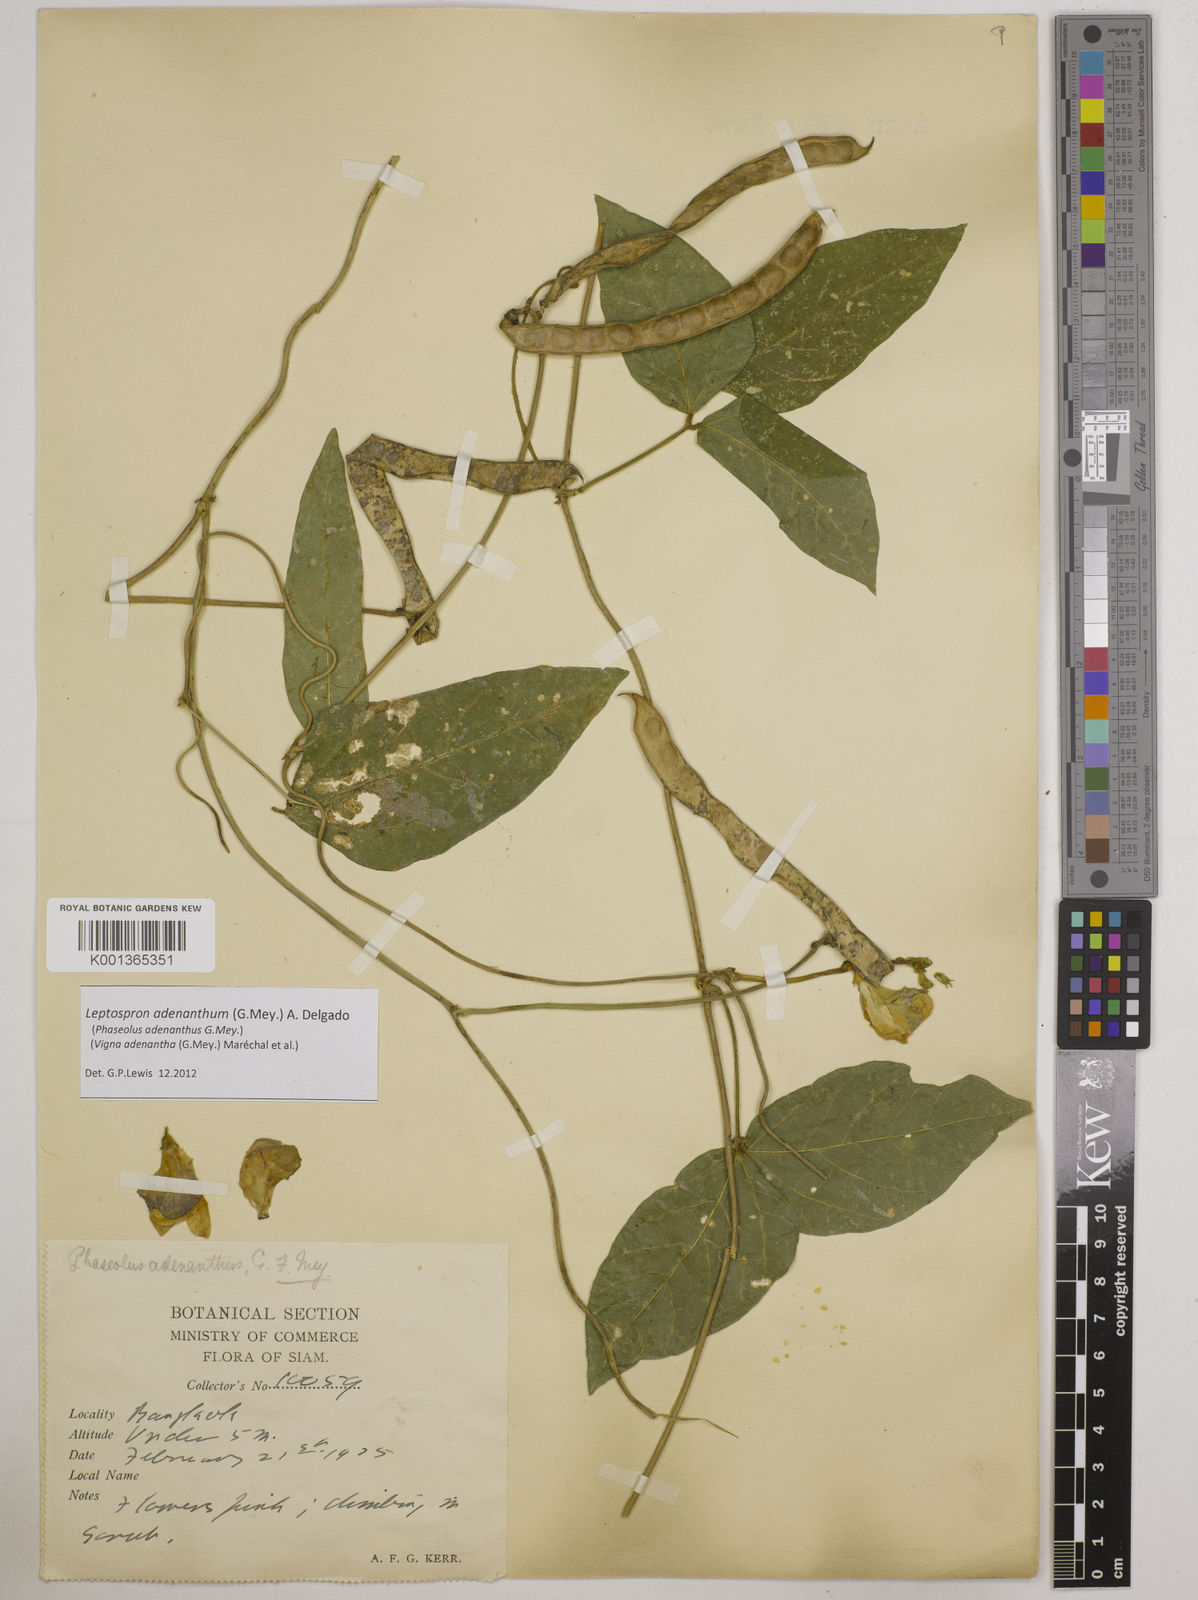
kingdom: Plantae
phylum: Tracheophyta
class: Magnoliopsida
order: Fabales
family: Fabaceae
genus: Leptospron
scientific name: Leptospron adenanthum
